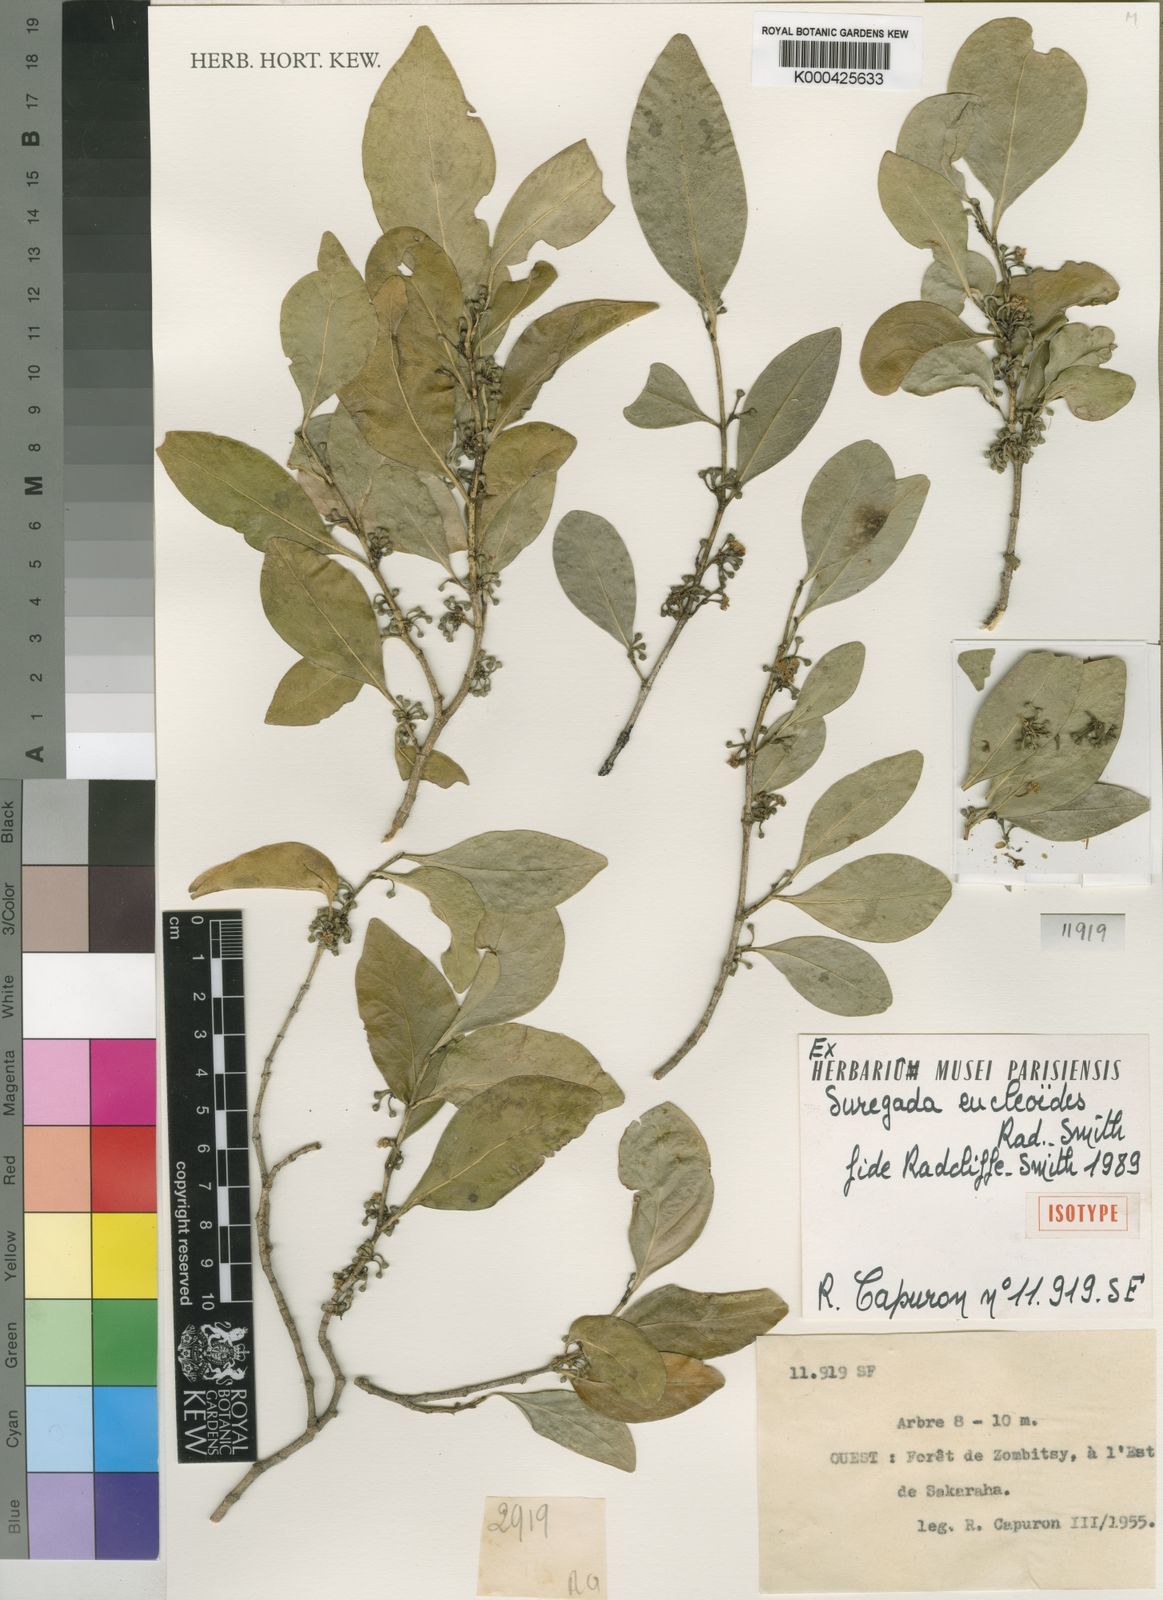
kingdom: Plantae
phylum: Tracheophyta
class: Magnoliopsida
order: Malpighiales
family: Euphorbiaceae
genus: Suregada
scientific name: Suregada eucleoides
